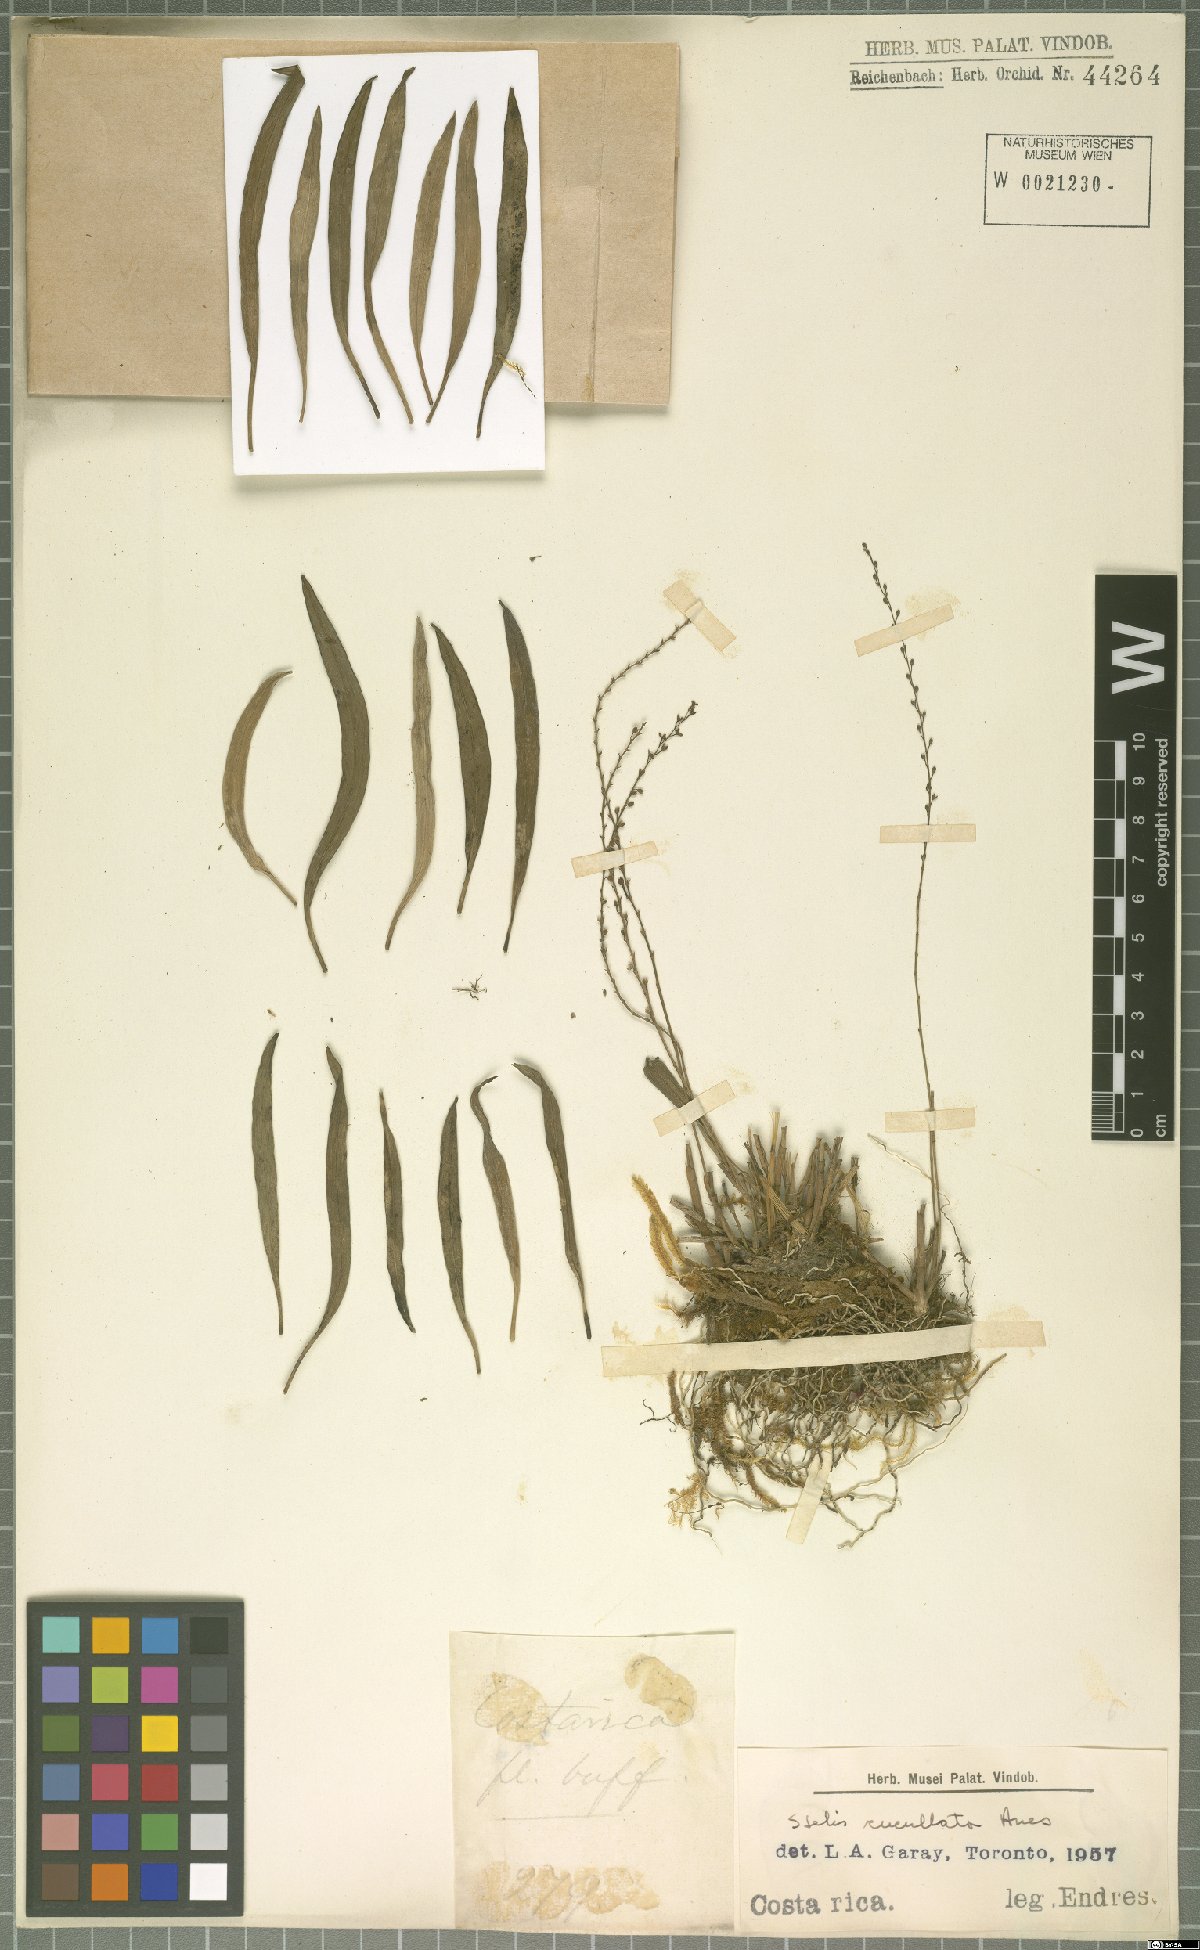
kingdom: Plantae
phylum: Tracheophyta
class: Liliopsida
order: Asparagales
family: Orchidaceae
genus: Stelis
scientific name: Stelis cucullata
